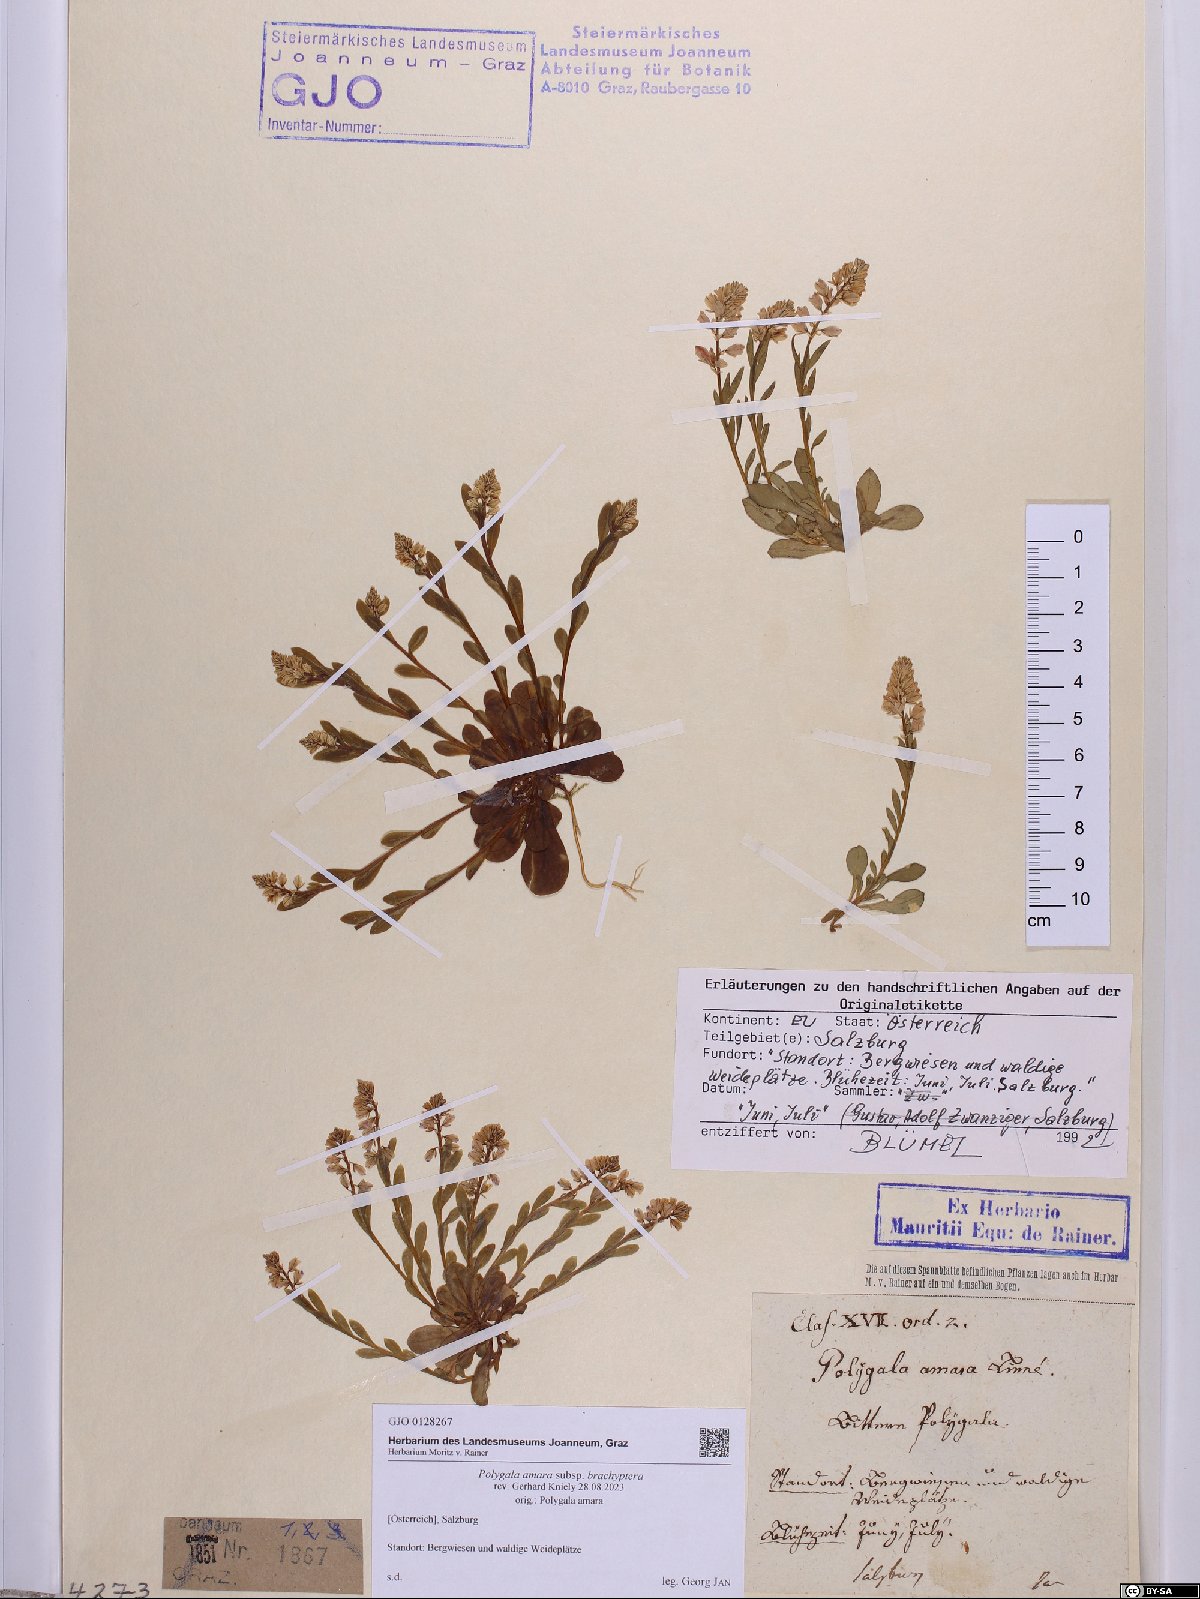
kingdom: Plantae
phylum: Tracheophyta
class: Magnoliopsida
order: Fabales
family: Polygalaceae
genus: Polygala
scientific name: Polygala amara
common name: Milkwort
